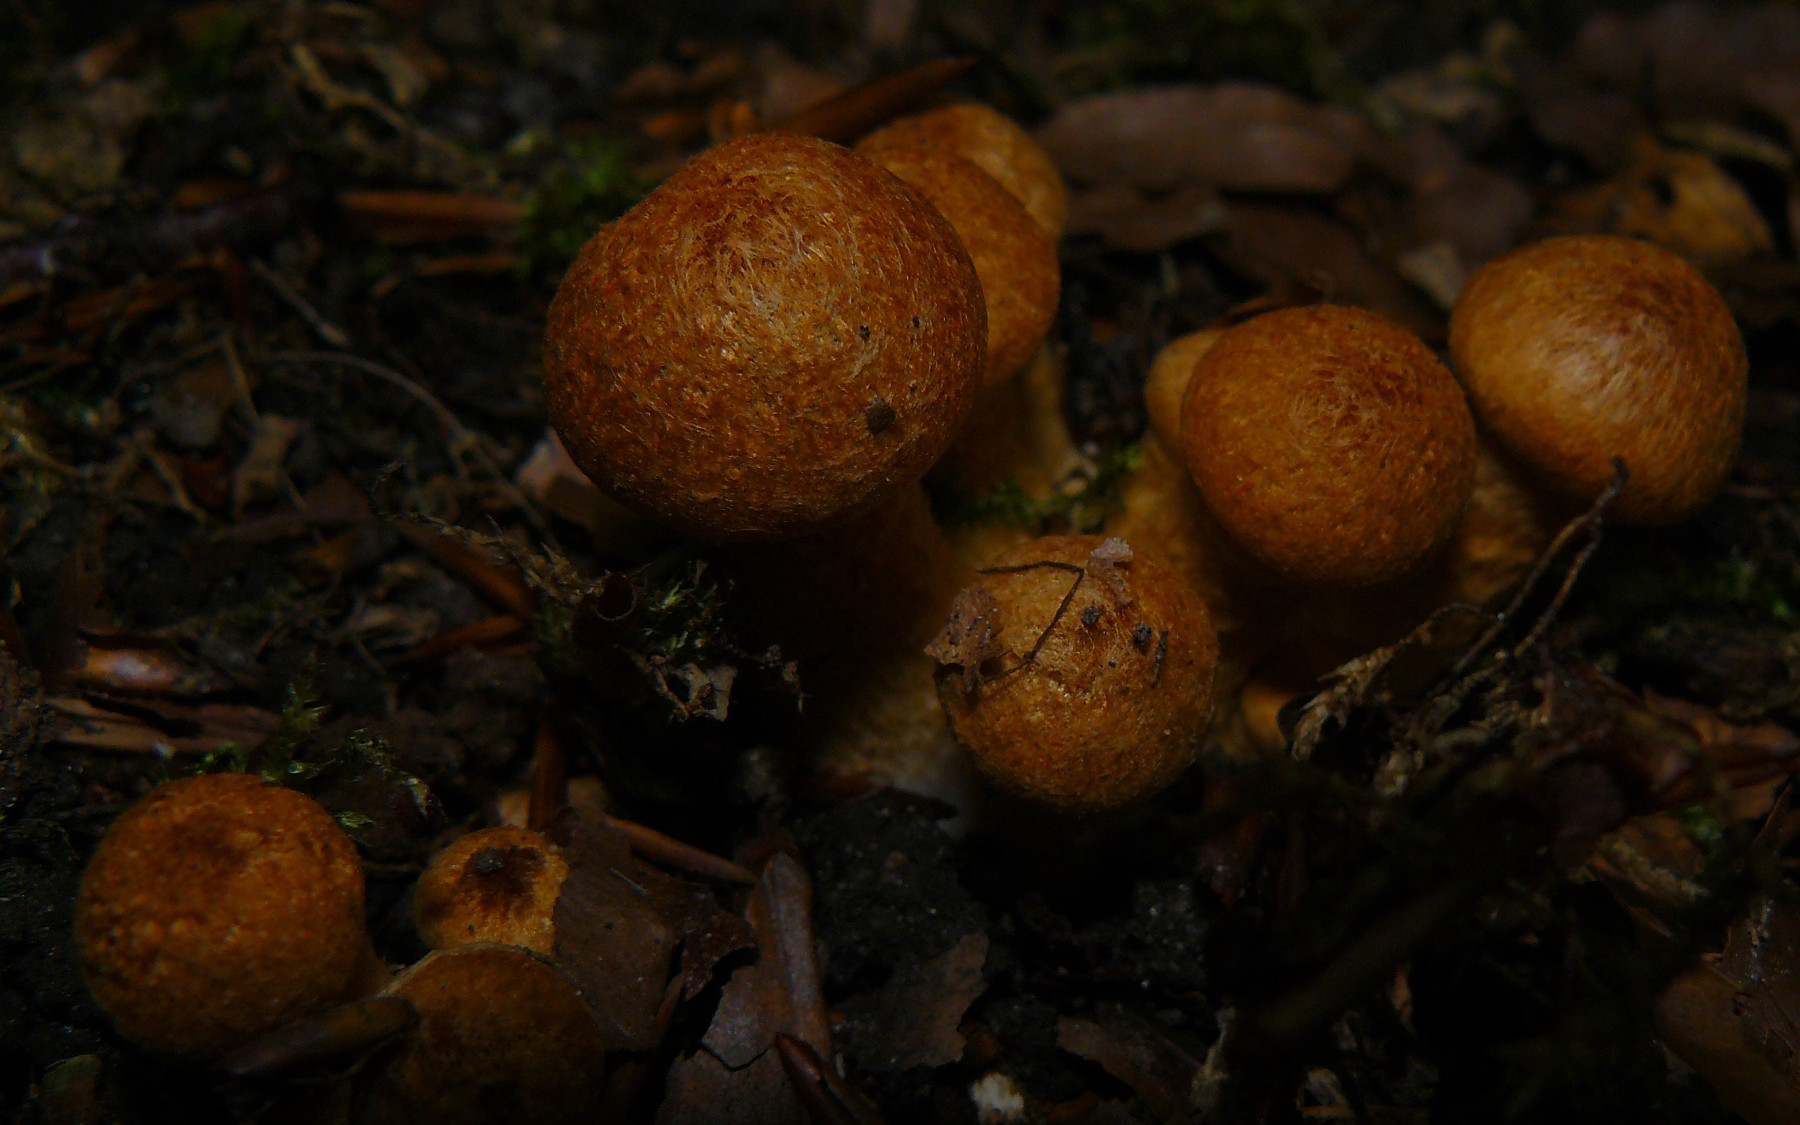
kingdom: Fungi
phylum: Basidiomycota
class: Agaricomycetes
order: Agaricales
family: Psathyrellaceae
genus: Lacrymaria
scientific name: Lacrymaria pyrotricha
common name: ildhåret mørkhat
